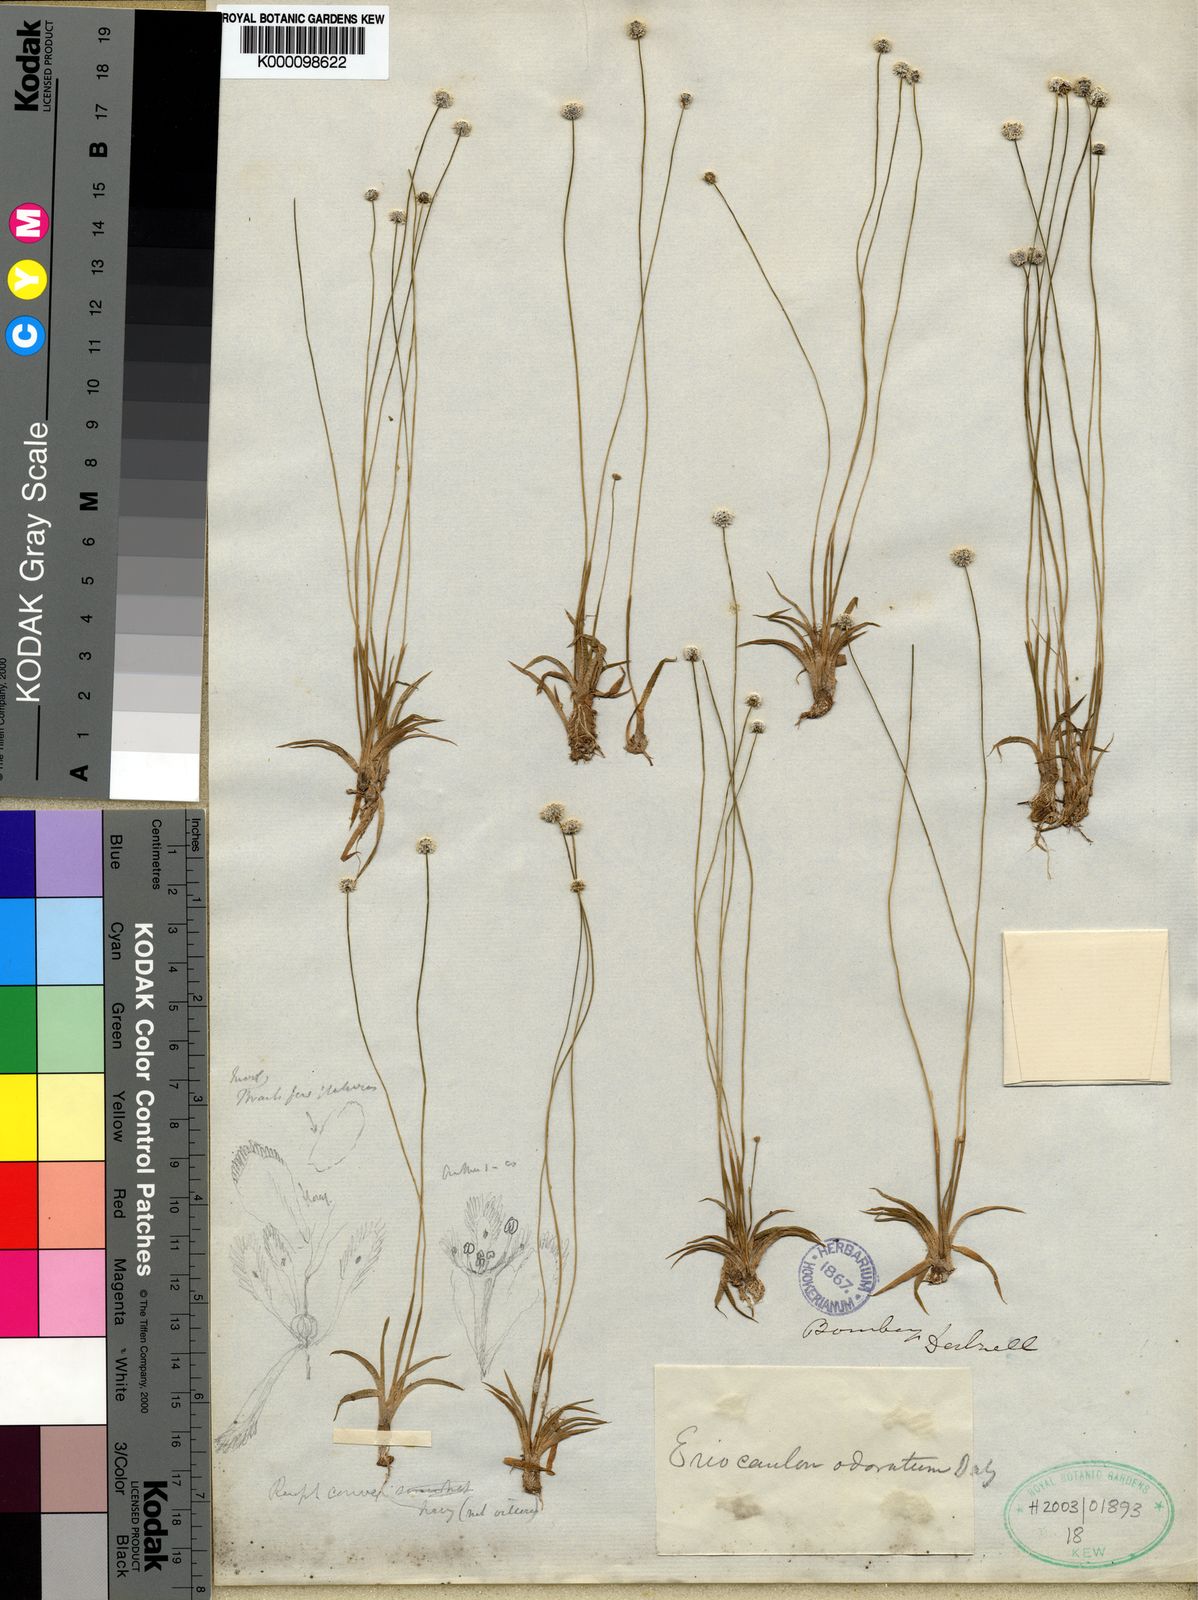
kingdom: Plantae
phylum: Tracheophyta
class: Liliopsida
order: Poales
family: Eriocaulaceae
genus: Eriocaulon
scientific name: Eriocaulon odoratum
